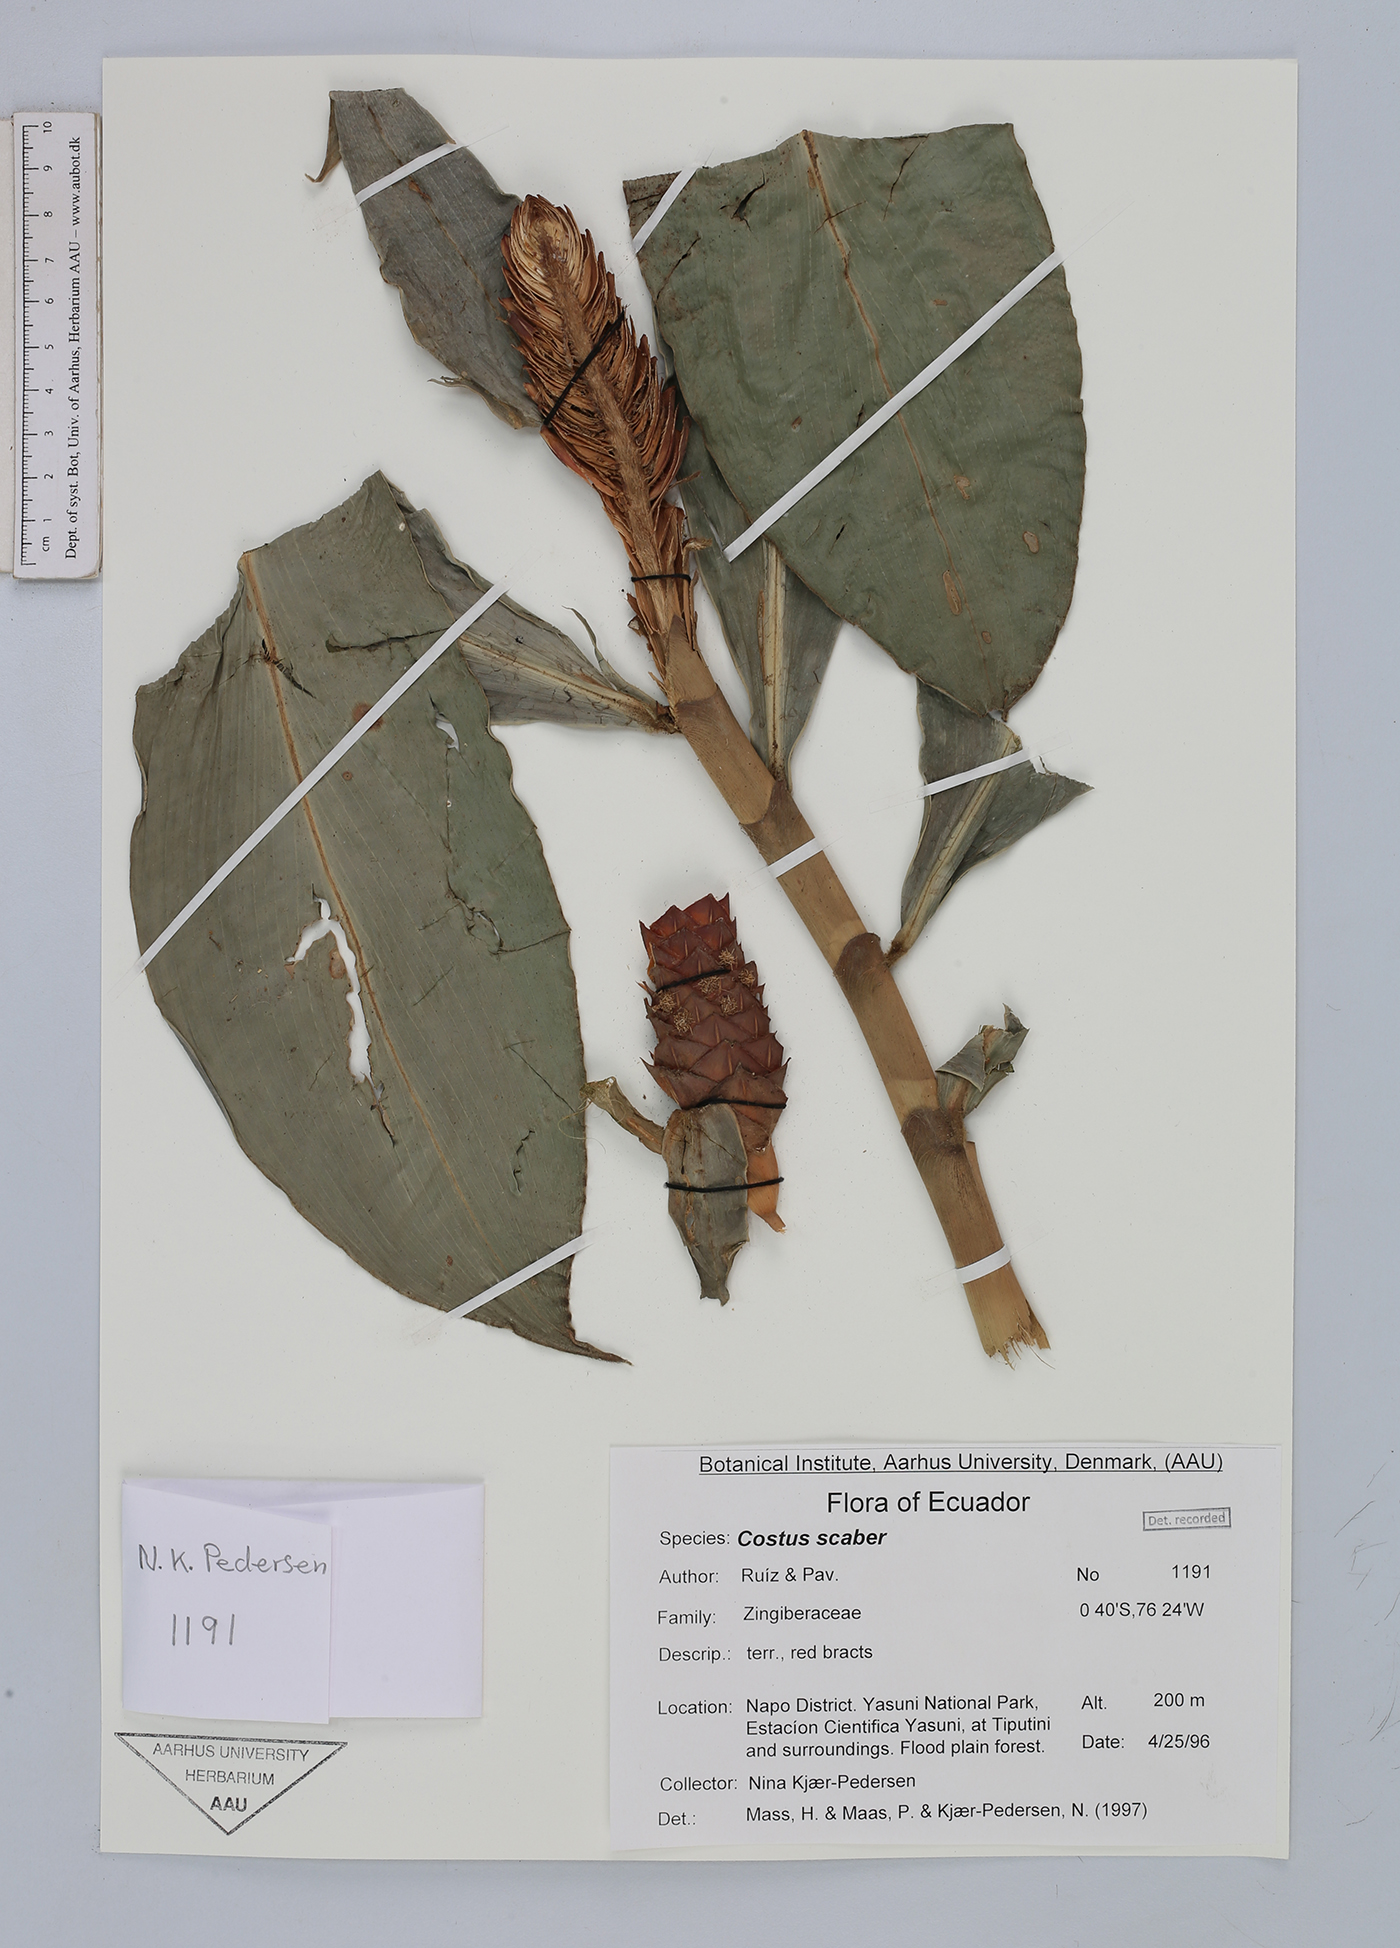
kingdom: Plantae
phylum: Tracheophyta
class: Liliopsida
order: Zingiberales
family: Costaceae
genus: Costus
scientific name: Costus scaber
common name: Spiral head ginger
